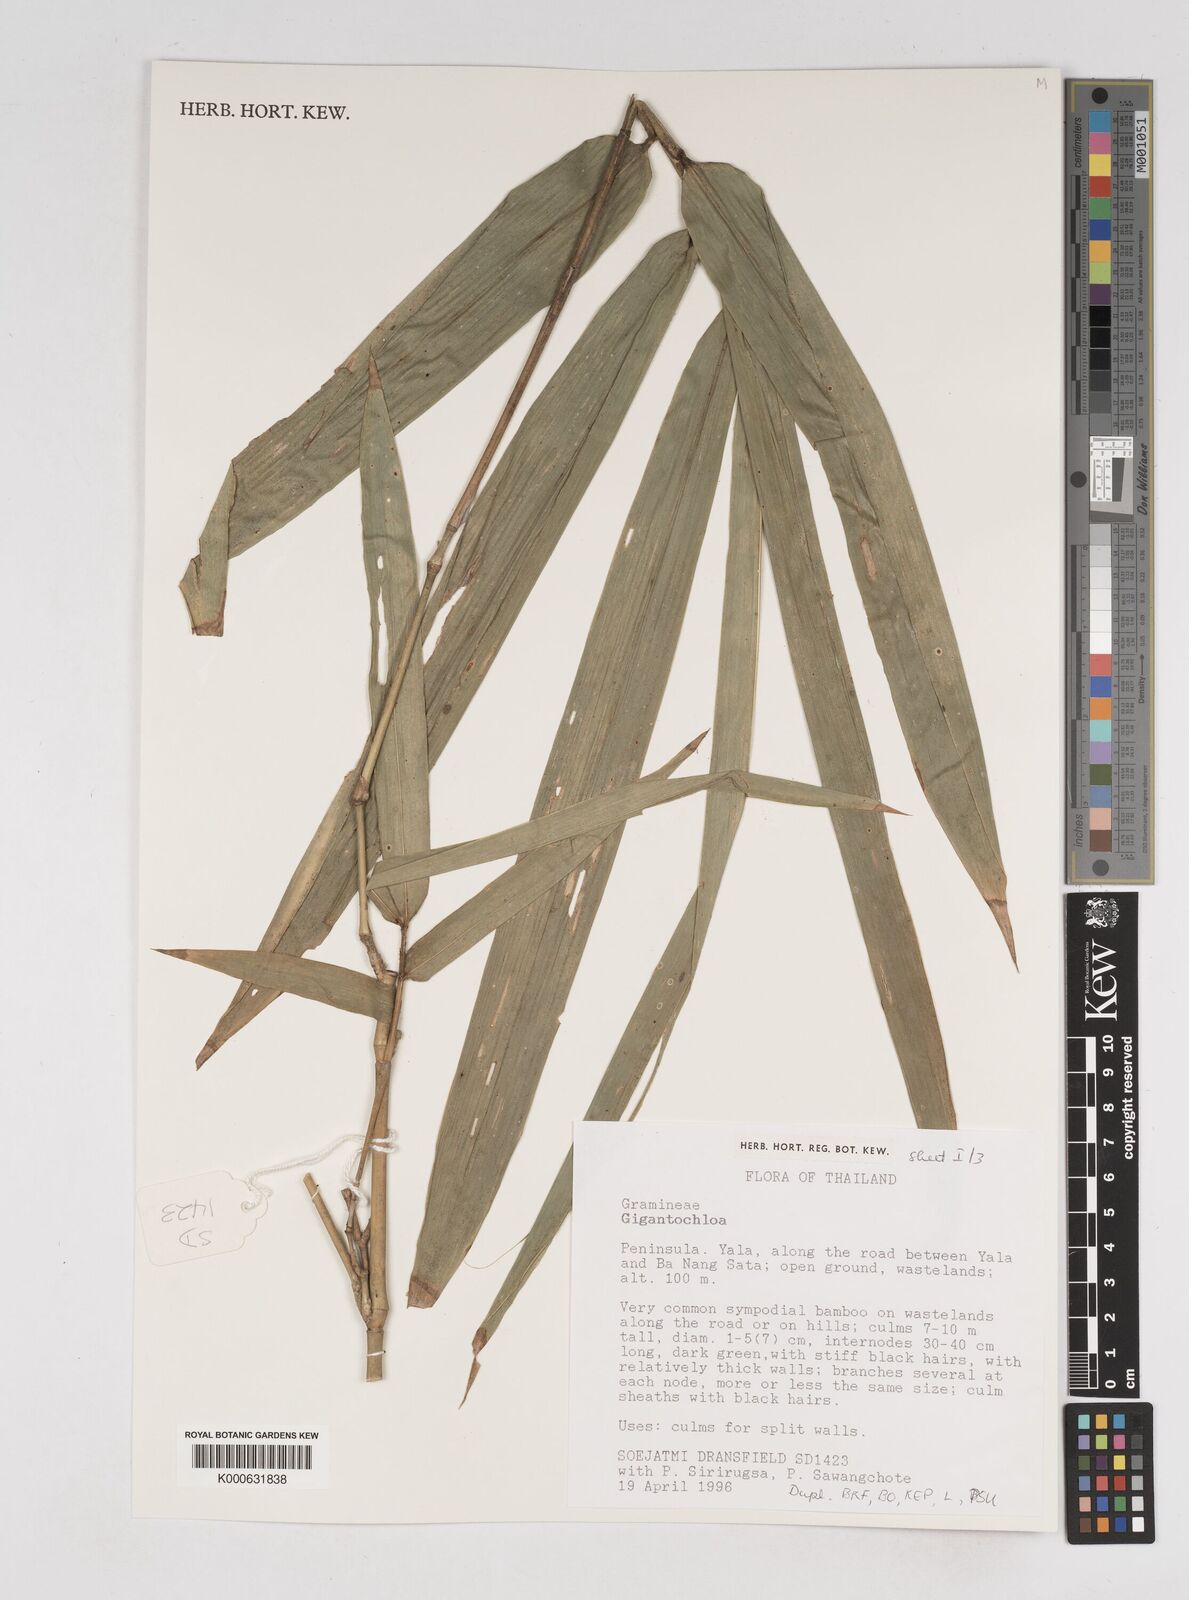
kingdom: Plantae
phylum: Tracheophyta
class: Liliopsida
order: Poales
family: Poaceae
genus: Gigantochloa
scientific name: Gigantochloa
